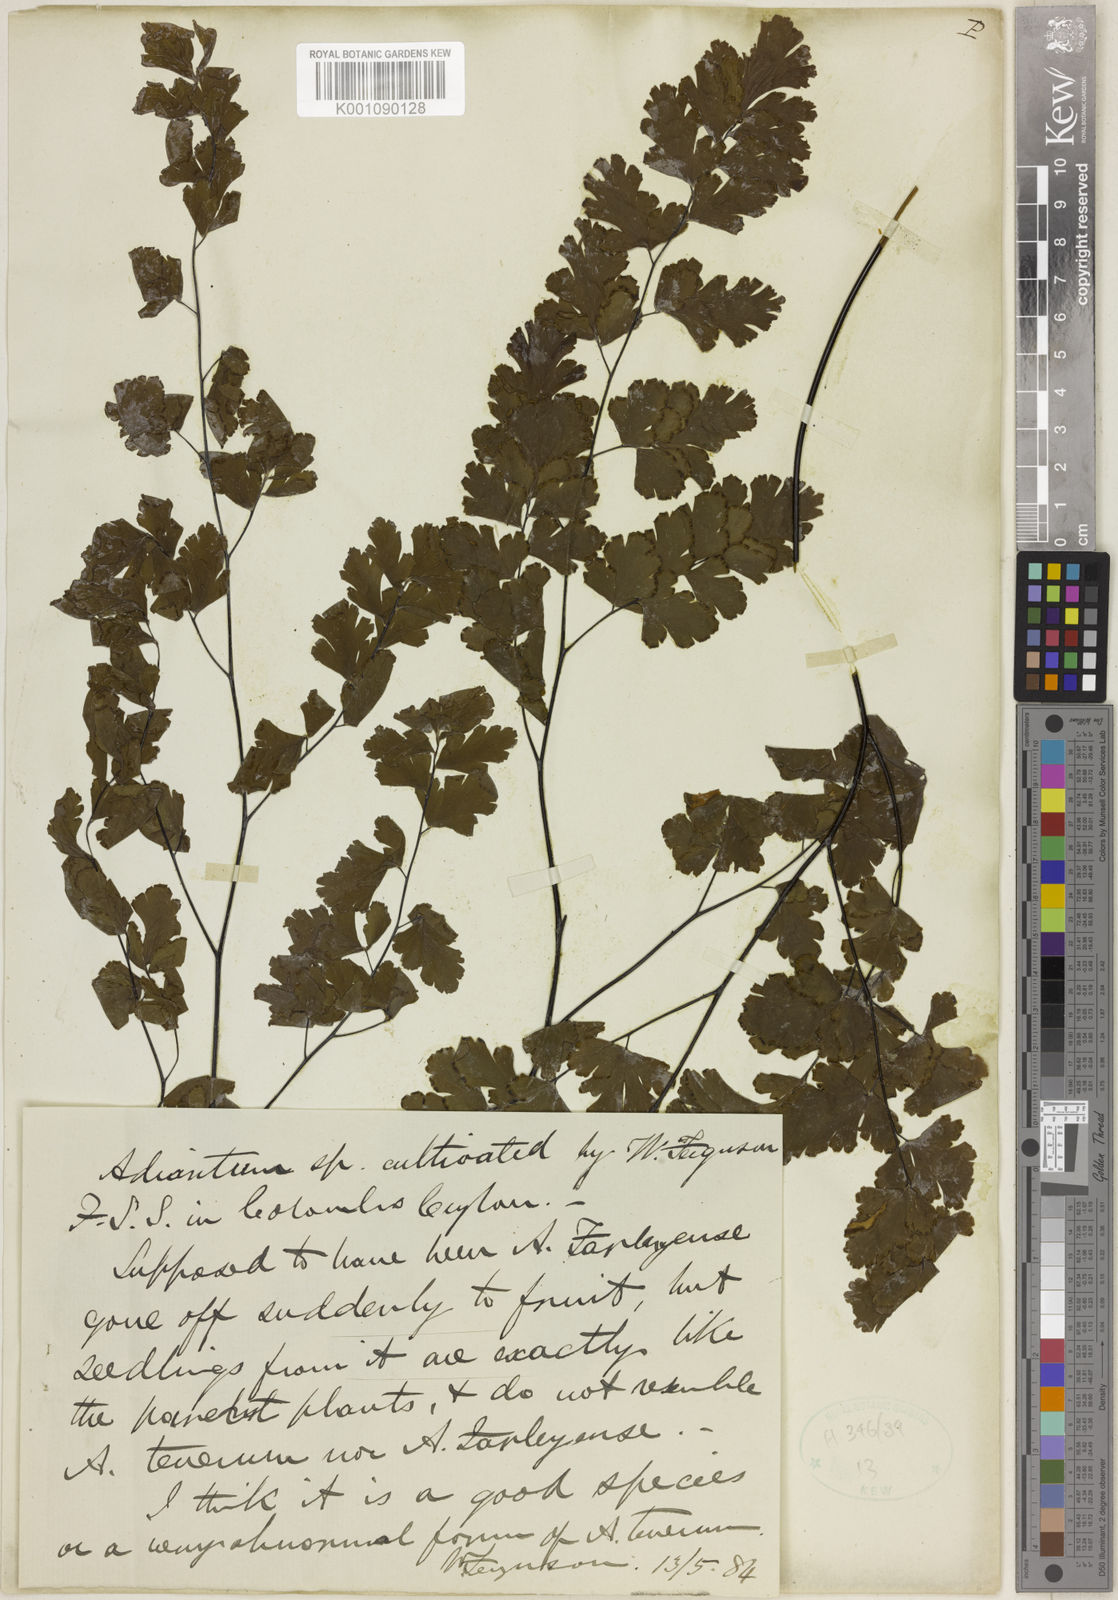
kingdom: Plantae
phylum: Tracheophyta
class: Polypodiopsida
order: Polypodiales
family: Pteridaceae
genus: Adiantum
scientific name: Adiantum tenerum
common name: Fan maidenhair
